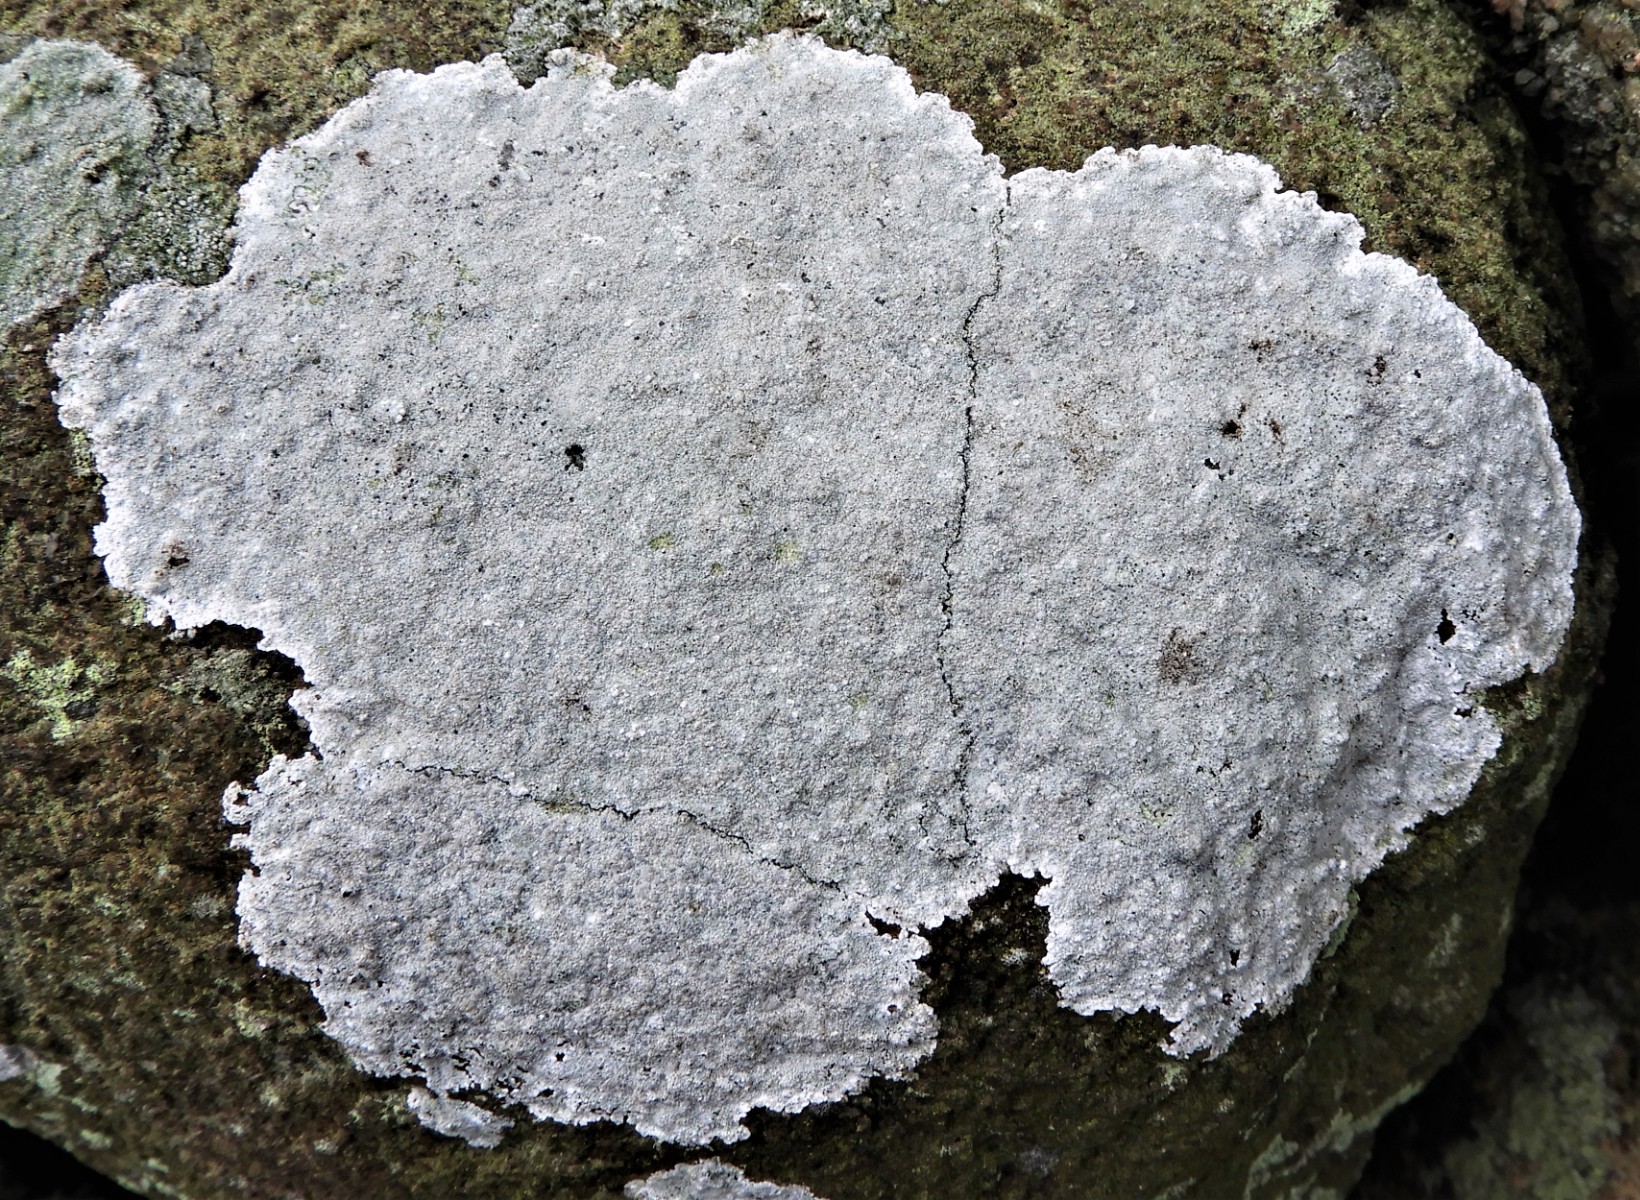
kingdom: Fungi
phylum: Ascomycota
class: Lecanoromycetes
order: Lecanorales
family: Lecanoraceae
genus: Glaucomaria
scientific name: Glaucomaria rupicola
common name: stengærde-kantskivelav
